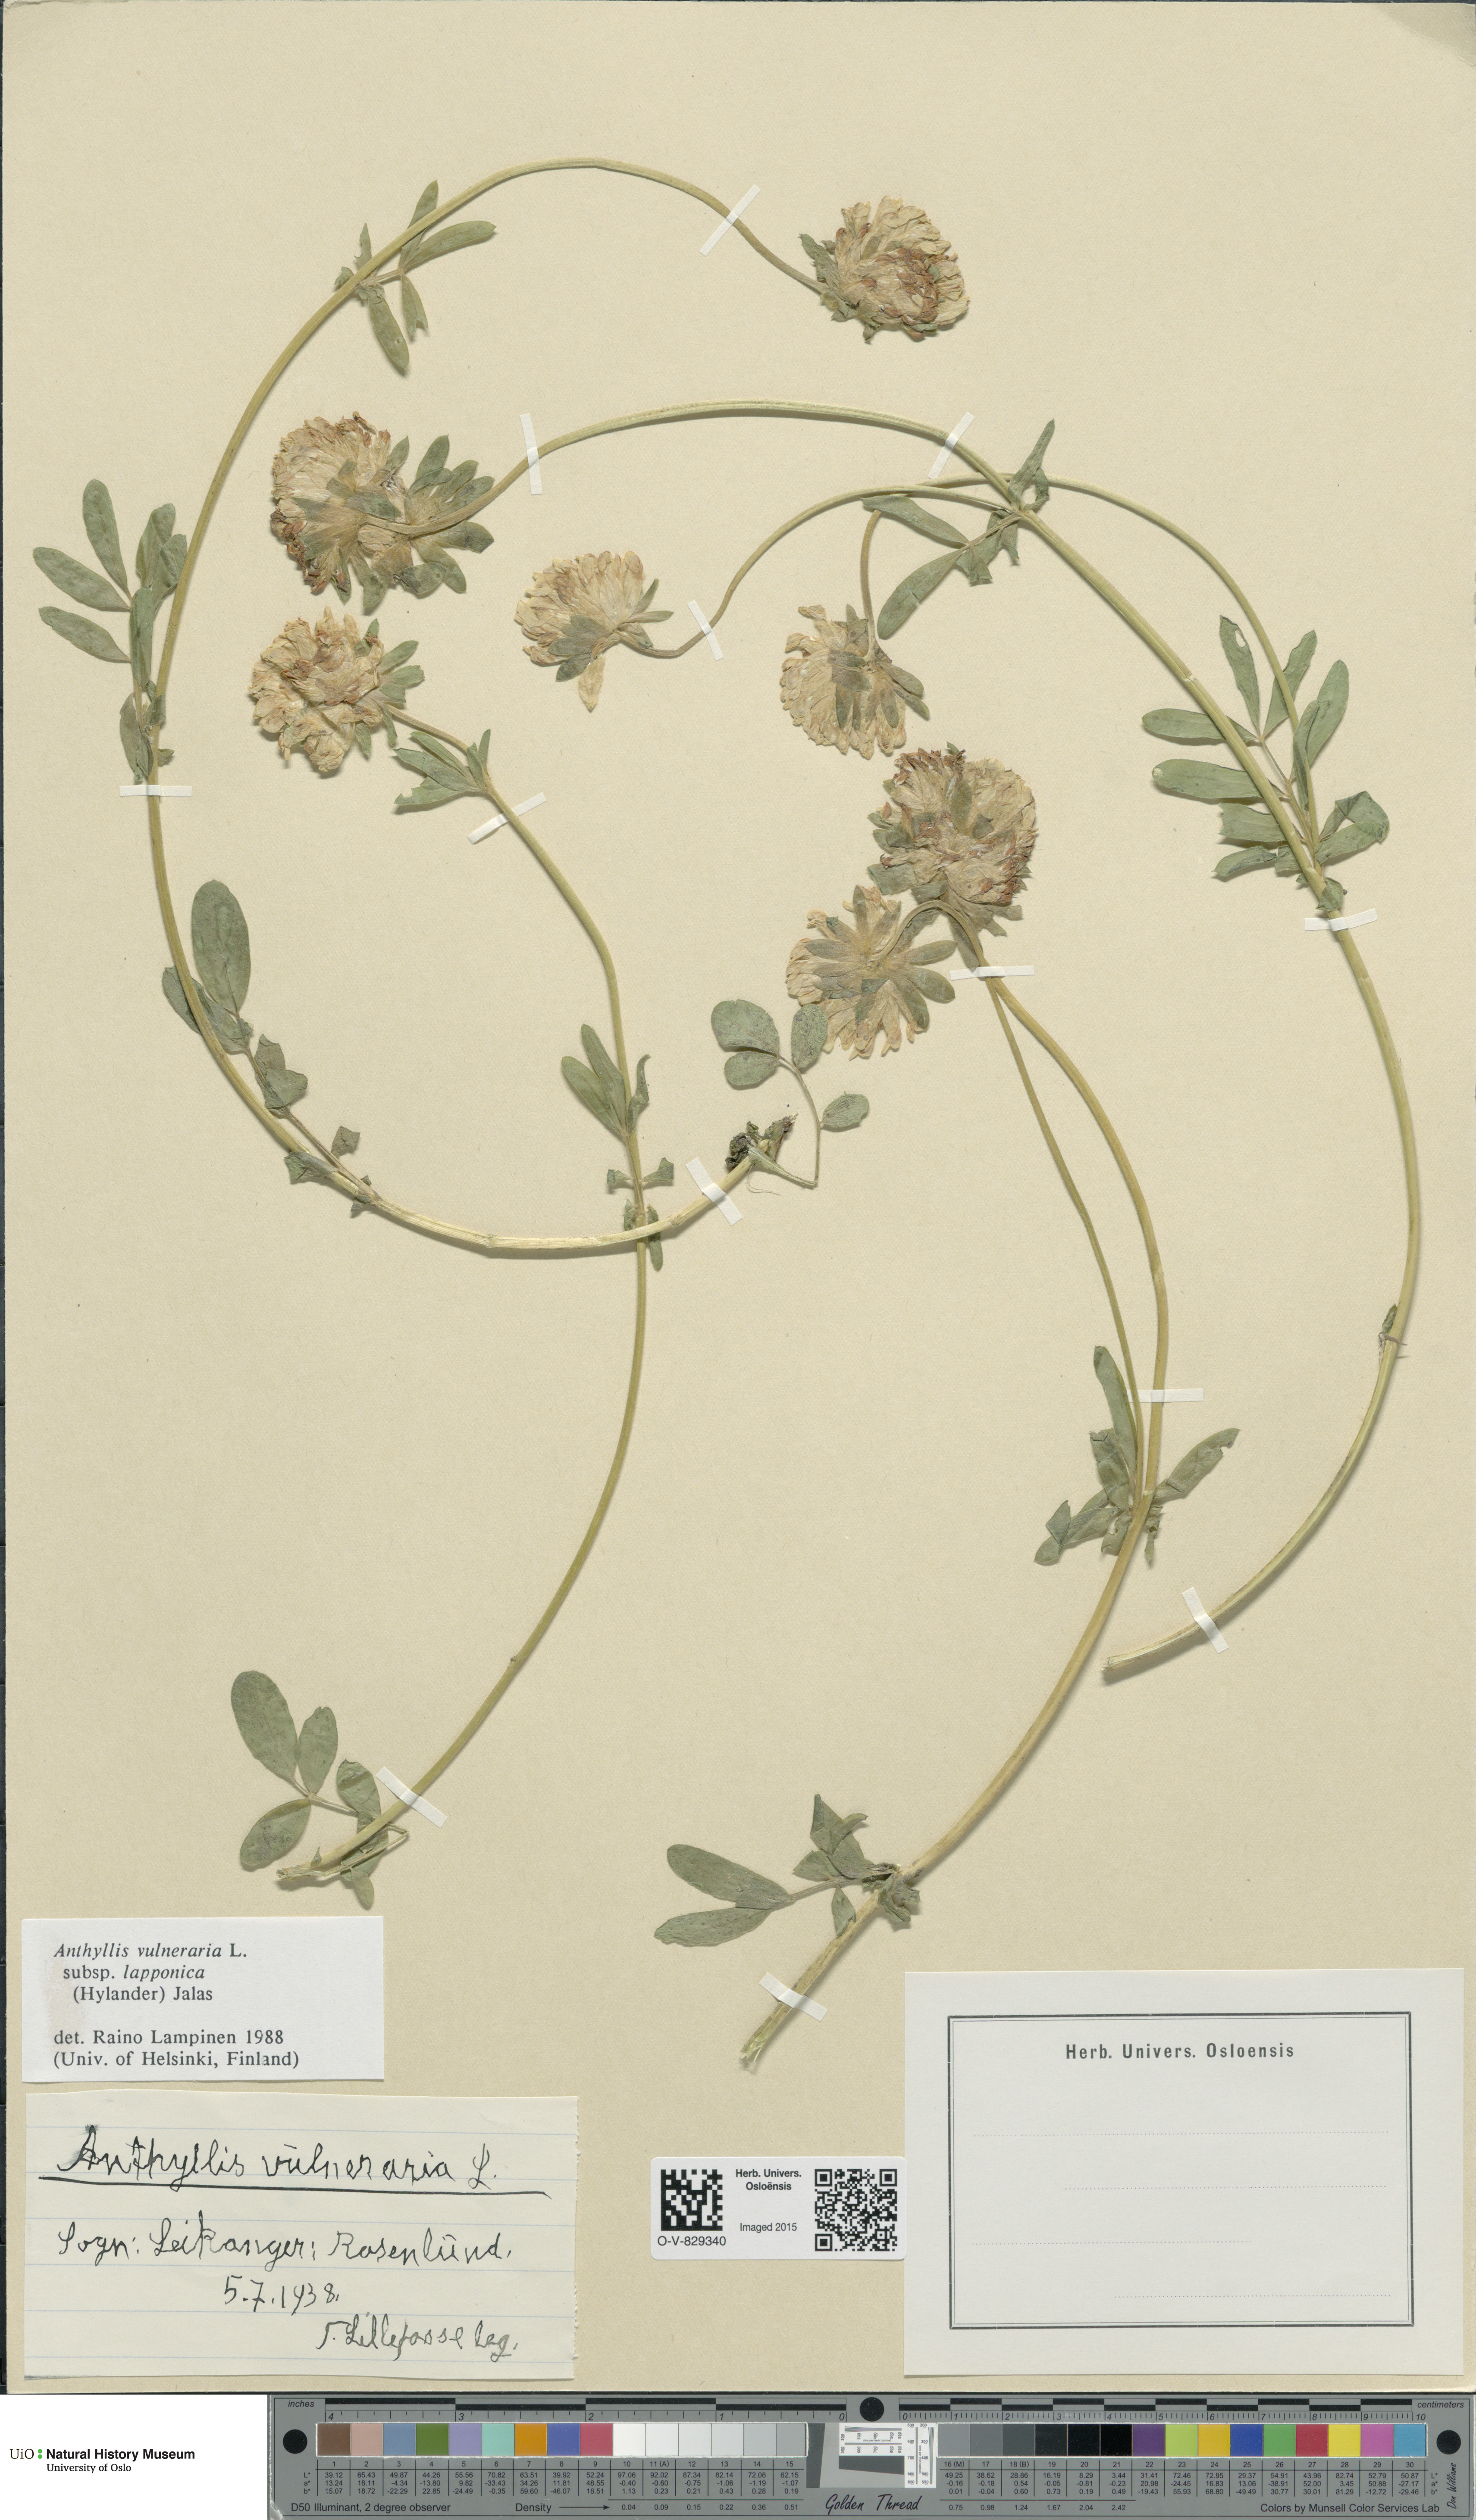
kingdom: Plantae
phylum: Tracheophyta
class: Magnoliopsida
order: Fabales
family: Fabaceae
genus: Anthyllis
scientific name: Anthyllis vulneraria
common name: Kidney vetch
